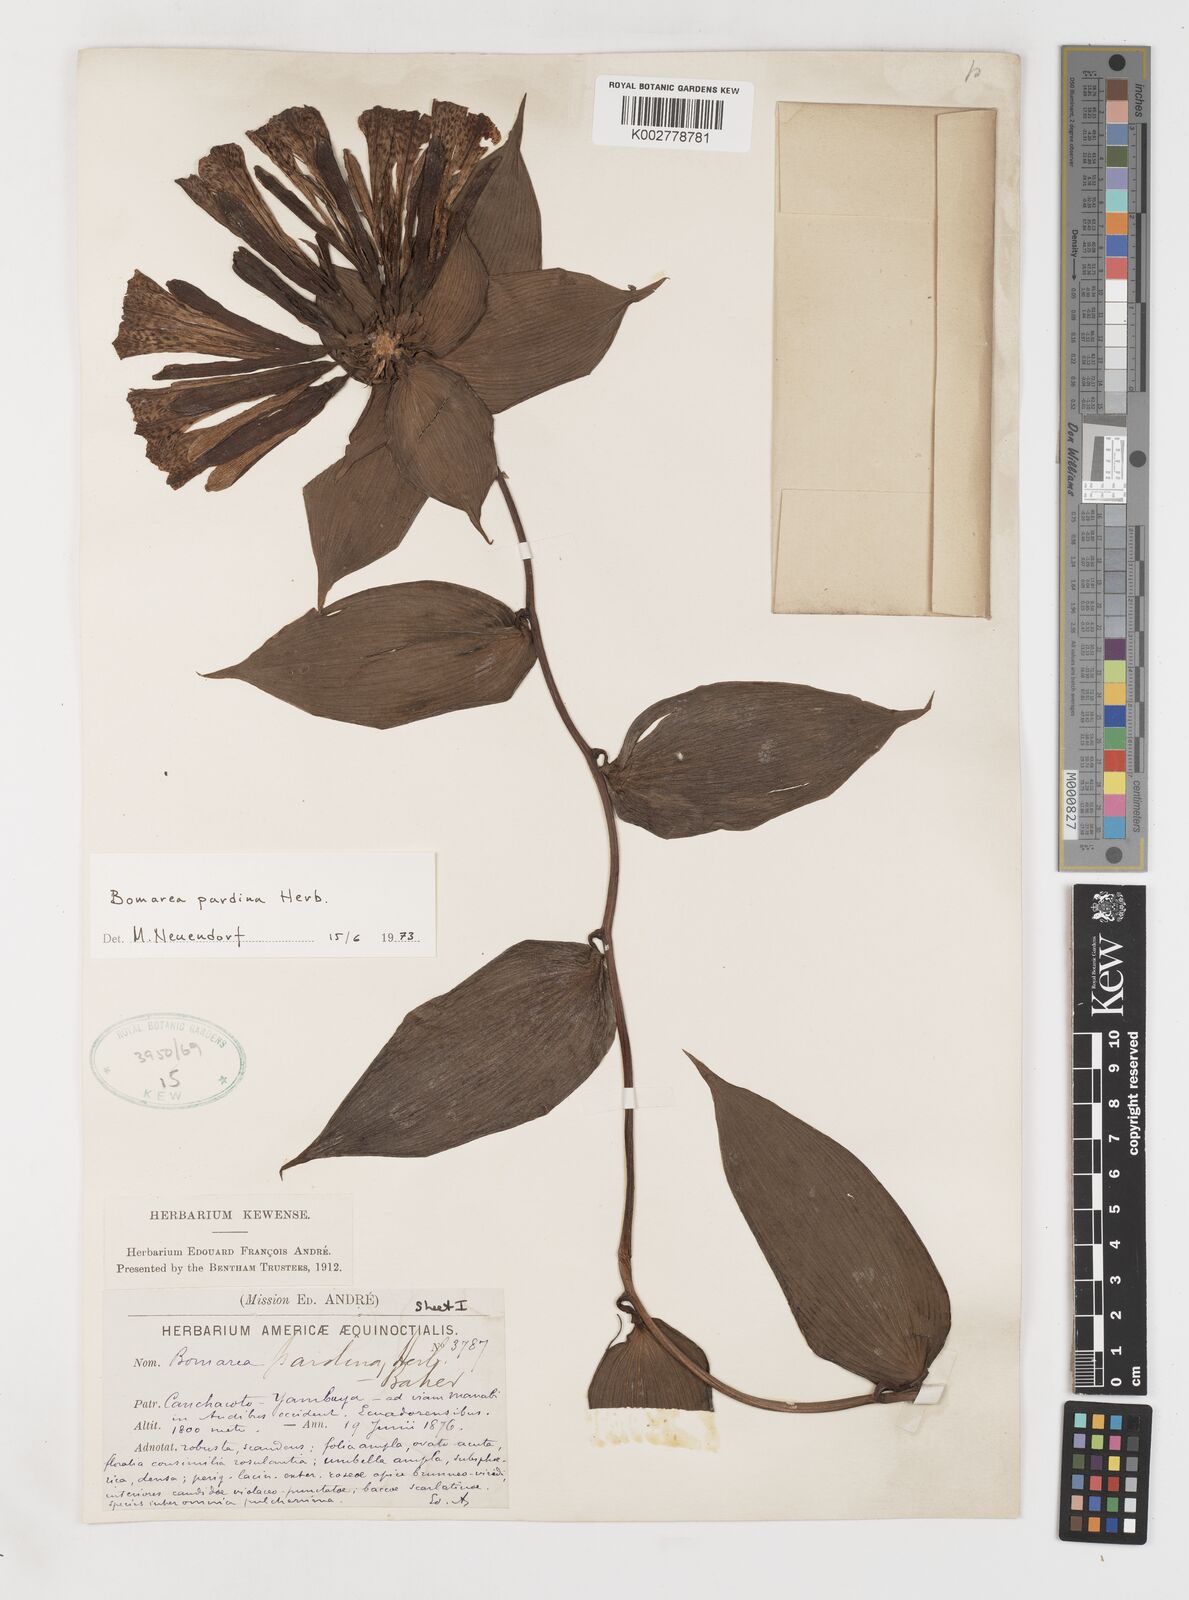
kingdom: Plantae
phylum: Tracheophyta
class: Liliopsida
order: Liliales
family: Alstroemeriaceae
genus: Bomarea
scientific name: Bomarea pardina
